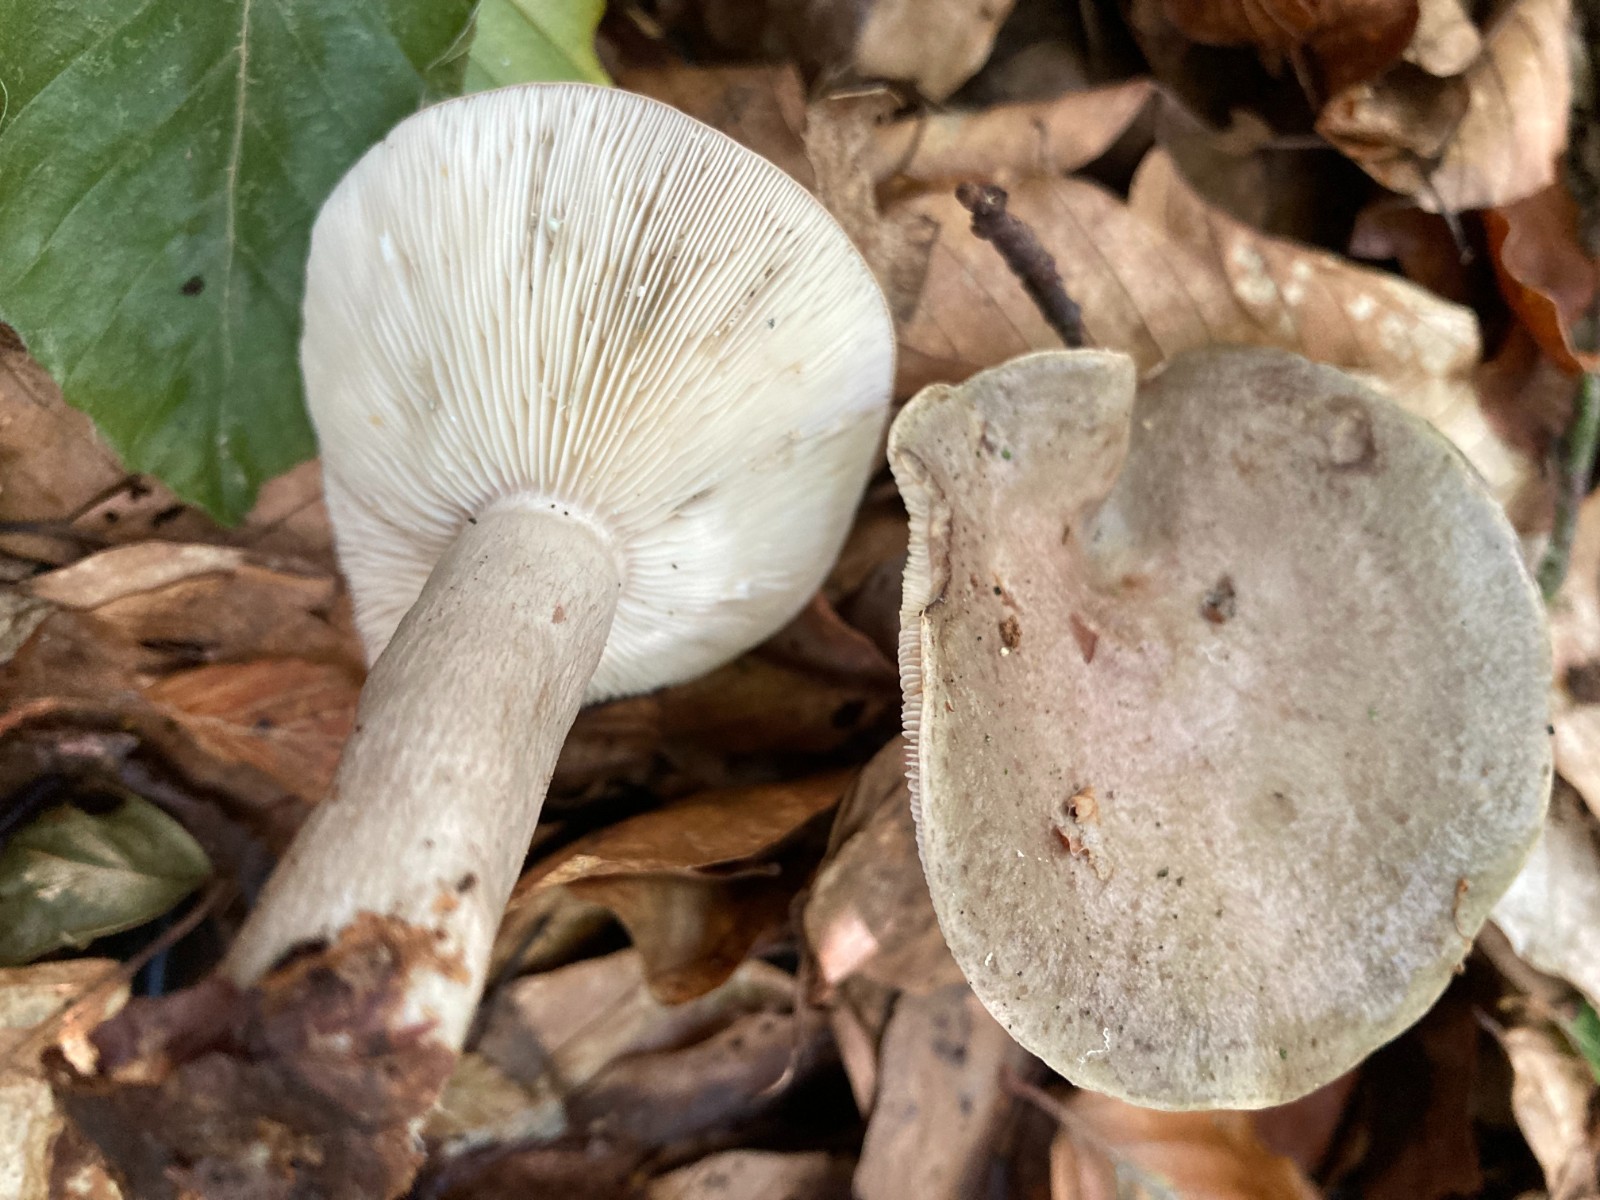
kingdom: Fungi
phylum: Basidiomycota
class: Agaricomycetes
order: Russulales
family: Russulaceae
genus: Lactarius
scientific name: Lactarius blennius
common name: dråbeplettet mælkehat
